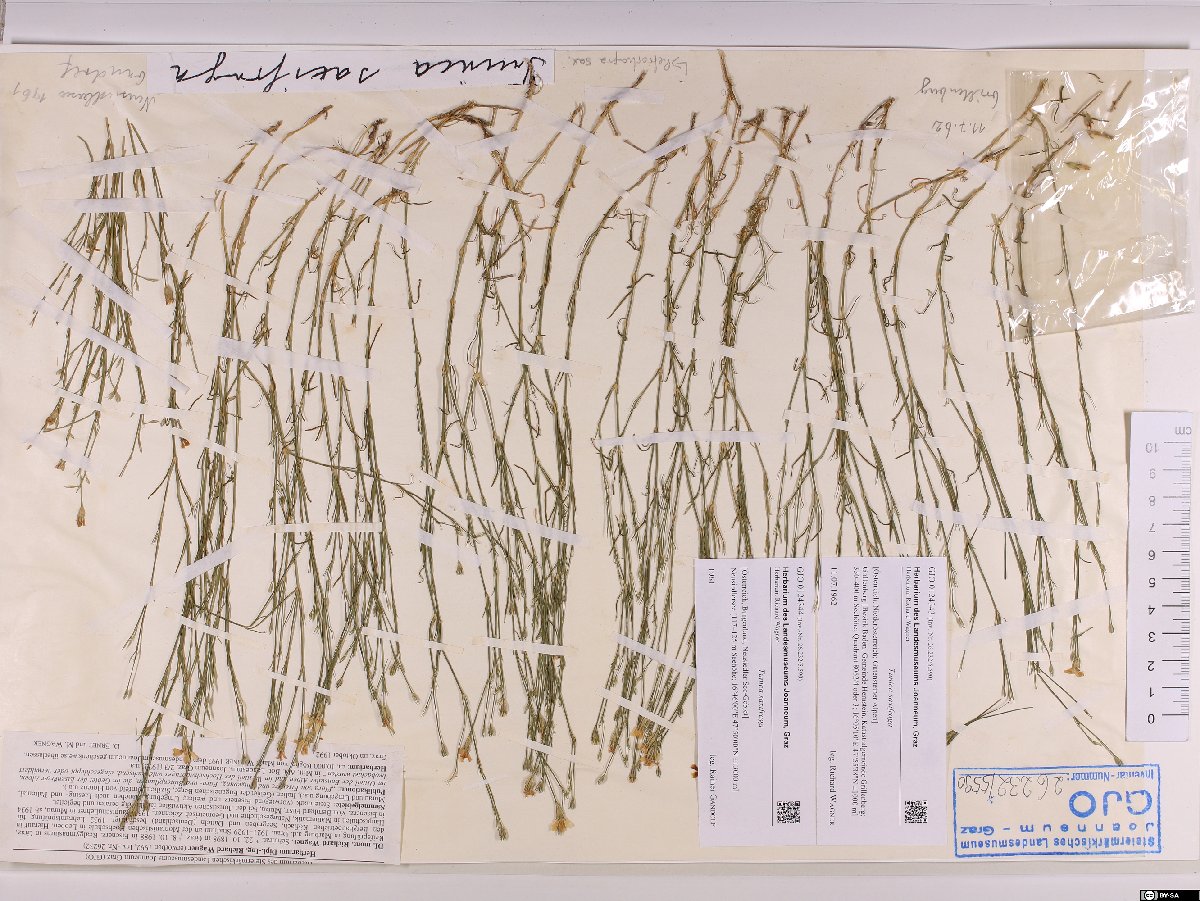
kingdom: Plantae
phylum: Tracheophyta
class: Magnoliopsida
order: Caryophyllales
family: Caryophyllaceae
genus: Petrorhagia
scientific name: Petrorhagia saxifraga
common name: Tunicflower
